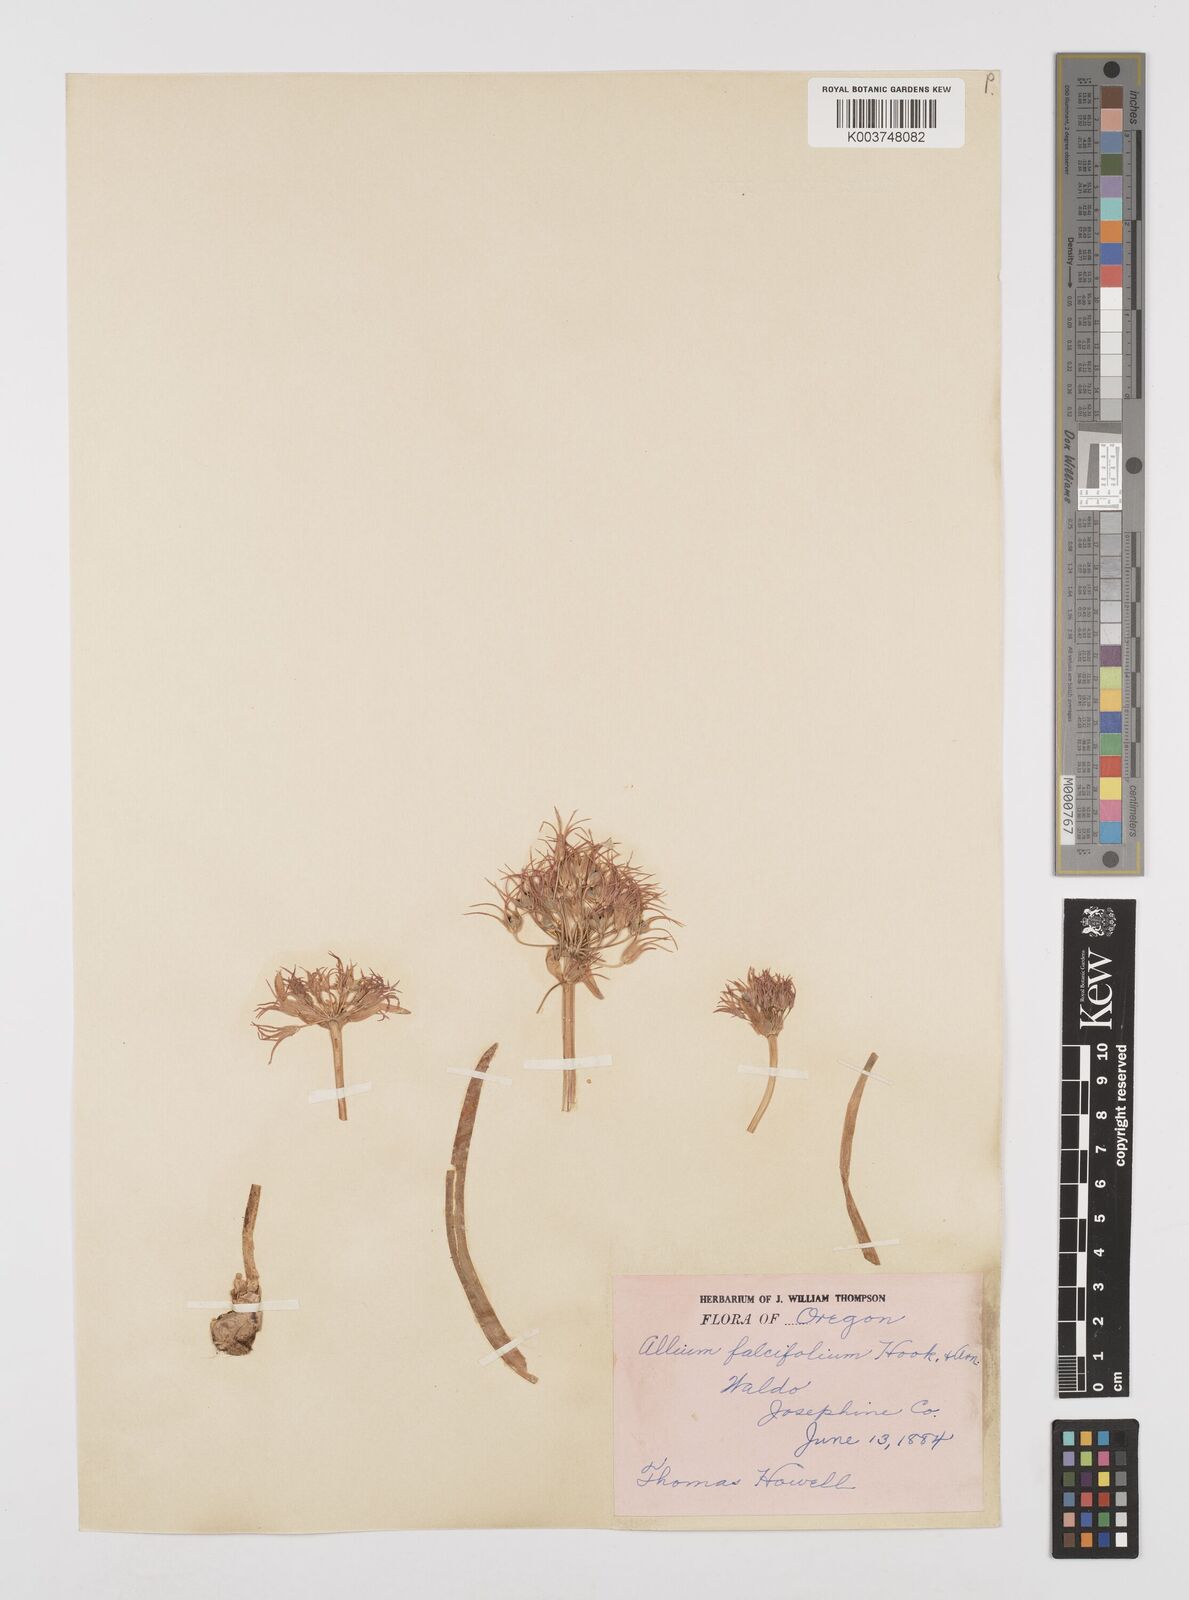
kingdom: Plantae
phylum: Tracheophyta
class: Liliopsida
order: Asparagales
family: Amaryllidaceae
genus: Allium
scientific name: Allium falcifolium
